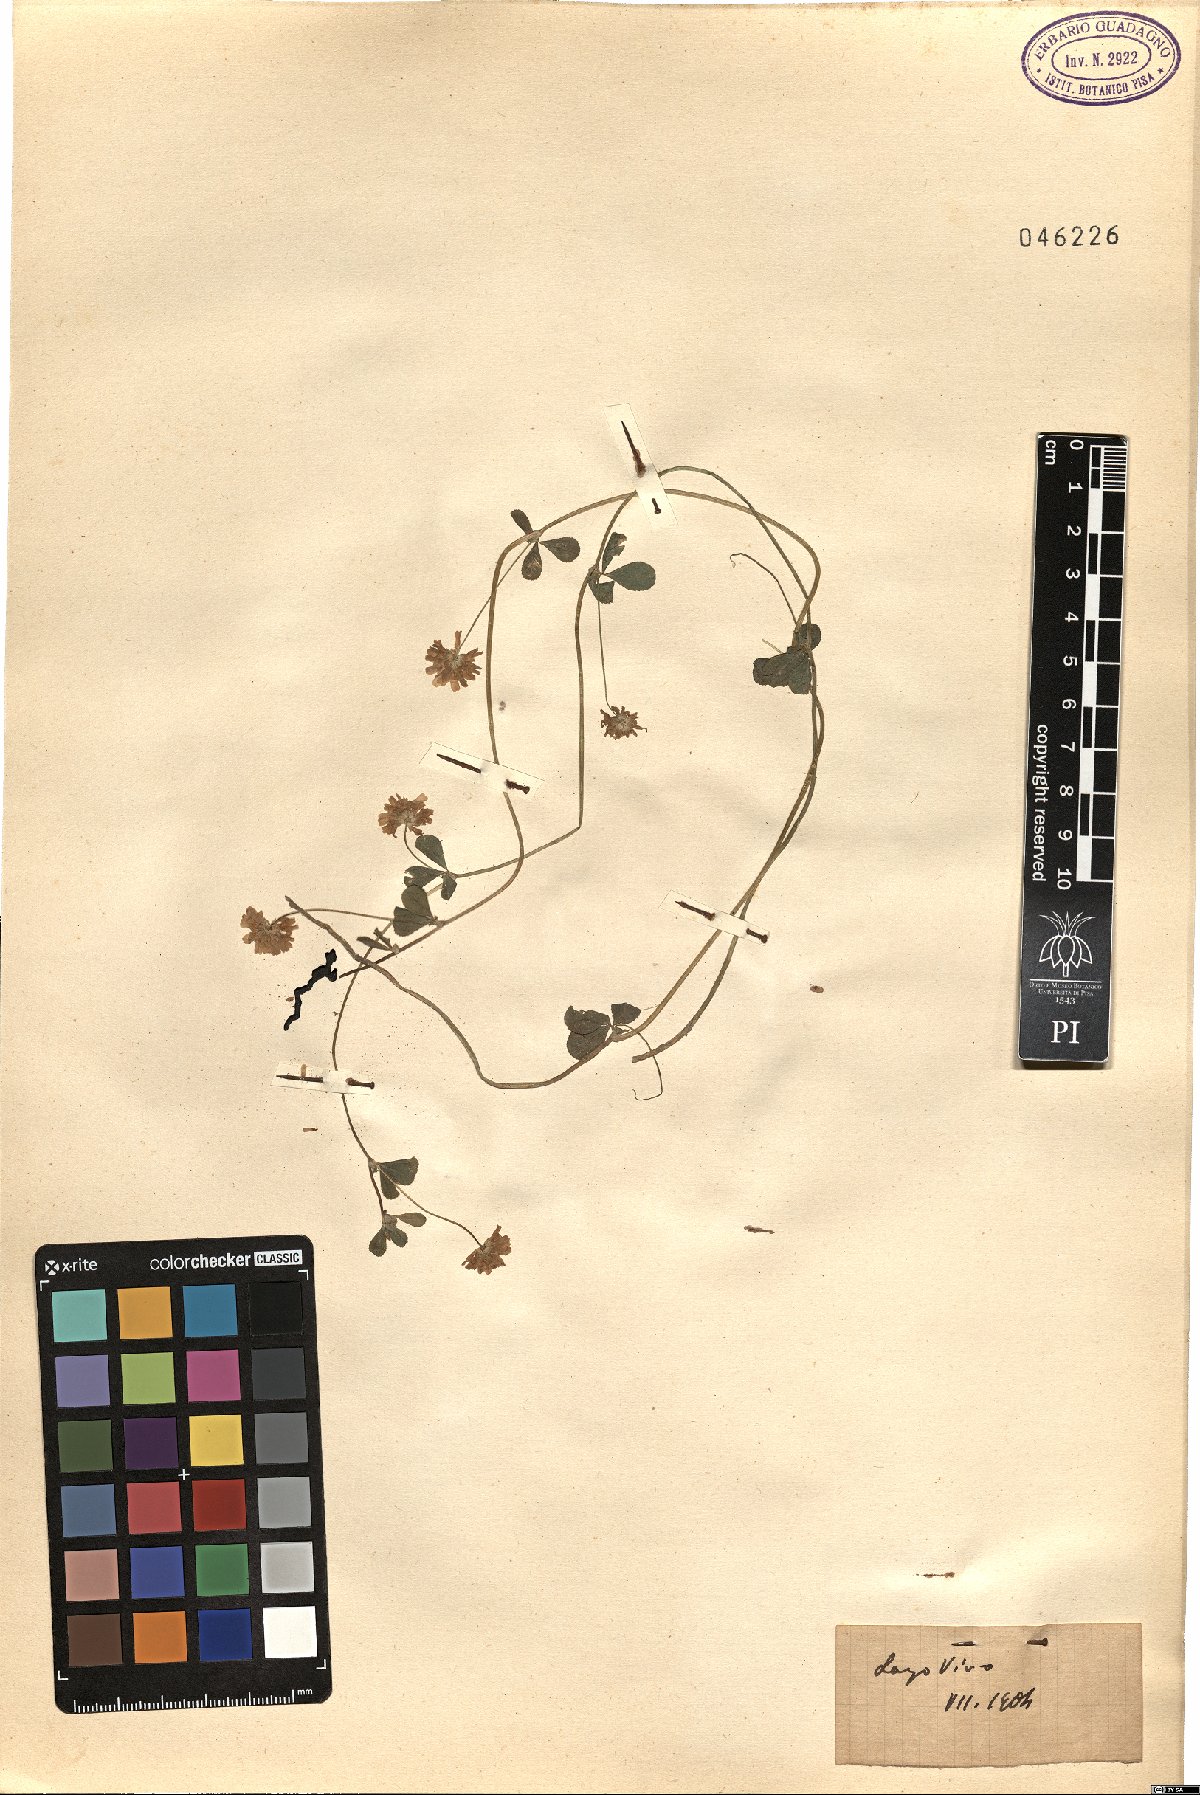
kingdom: Plantae
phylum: Tracheophyta
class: Magnoliopsida
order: Fabales
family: Fabaceae
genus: Trifolium
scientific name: Trifolium
